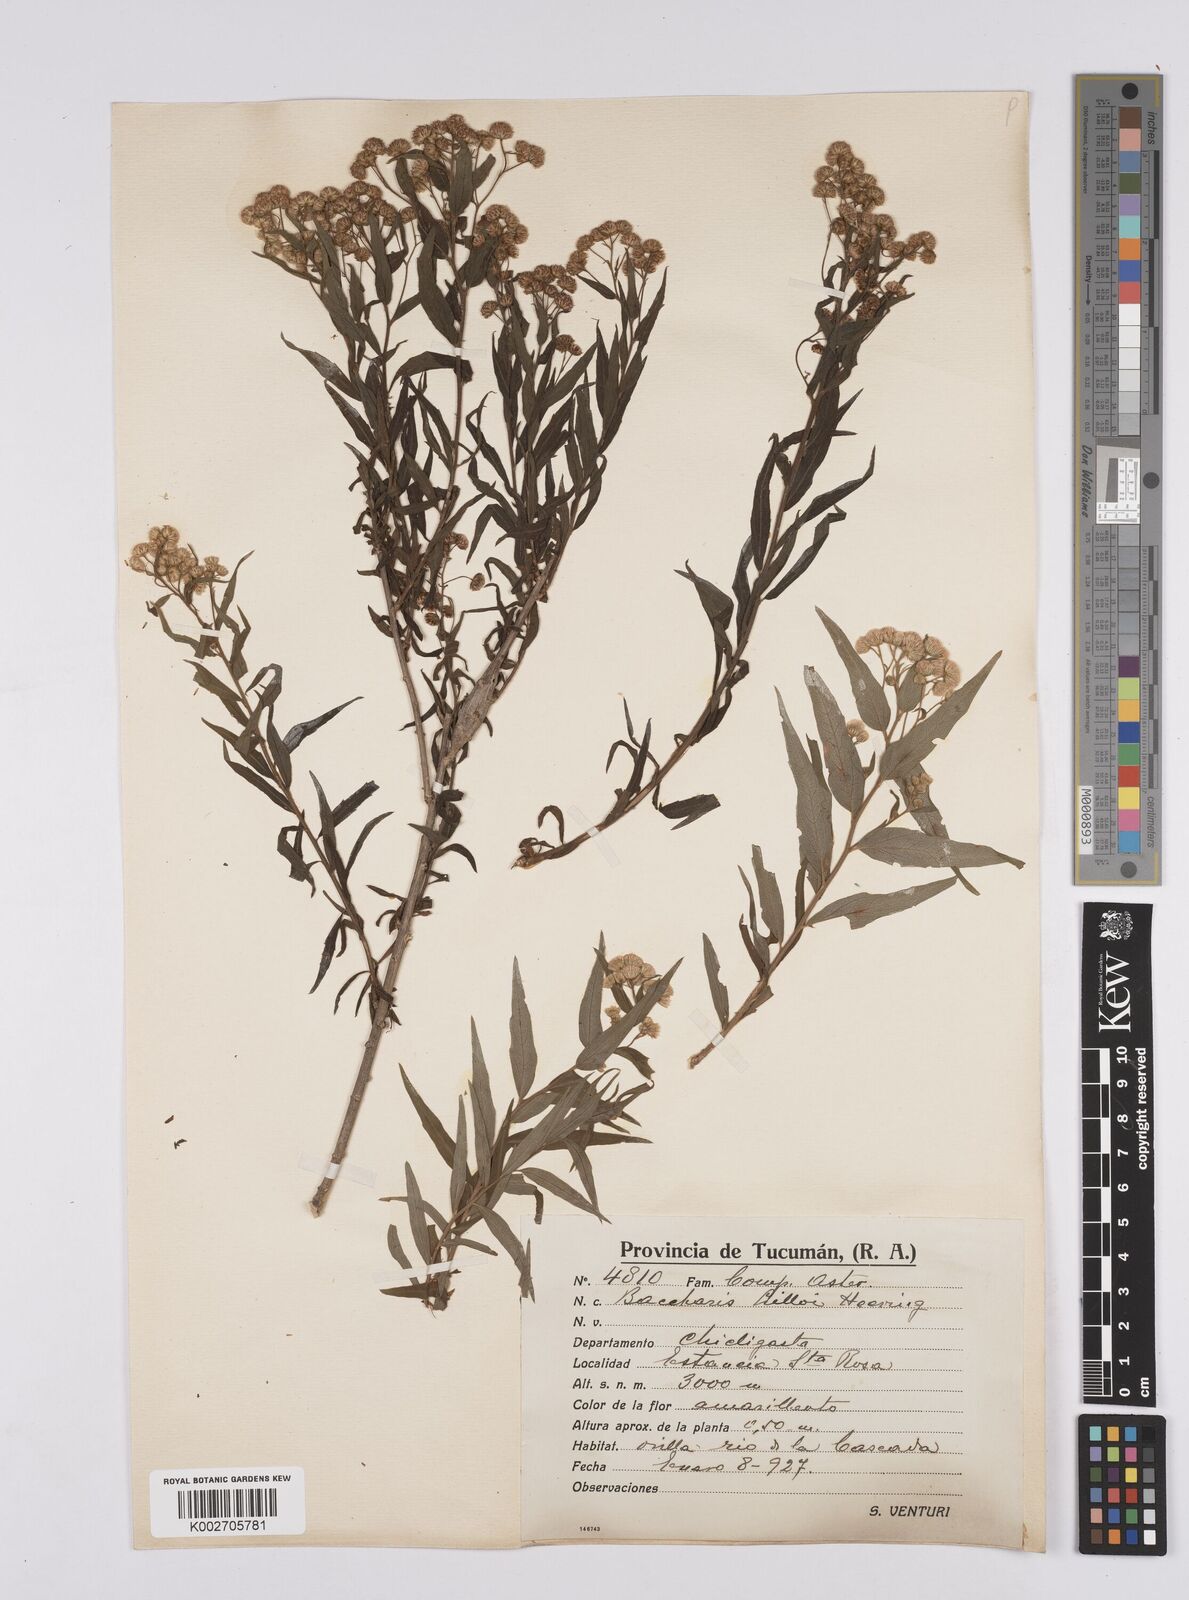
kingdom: Plantae
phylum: Tracheophyta
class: Magnoliopsida
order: Asterales
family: Asteraceae
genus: Baccharis
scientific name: Baccharis lilloi
